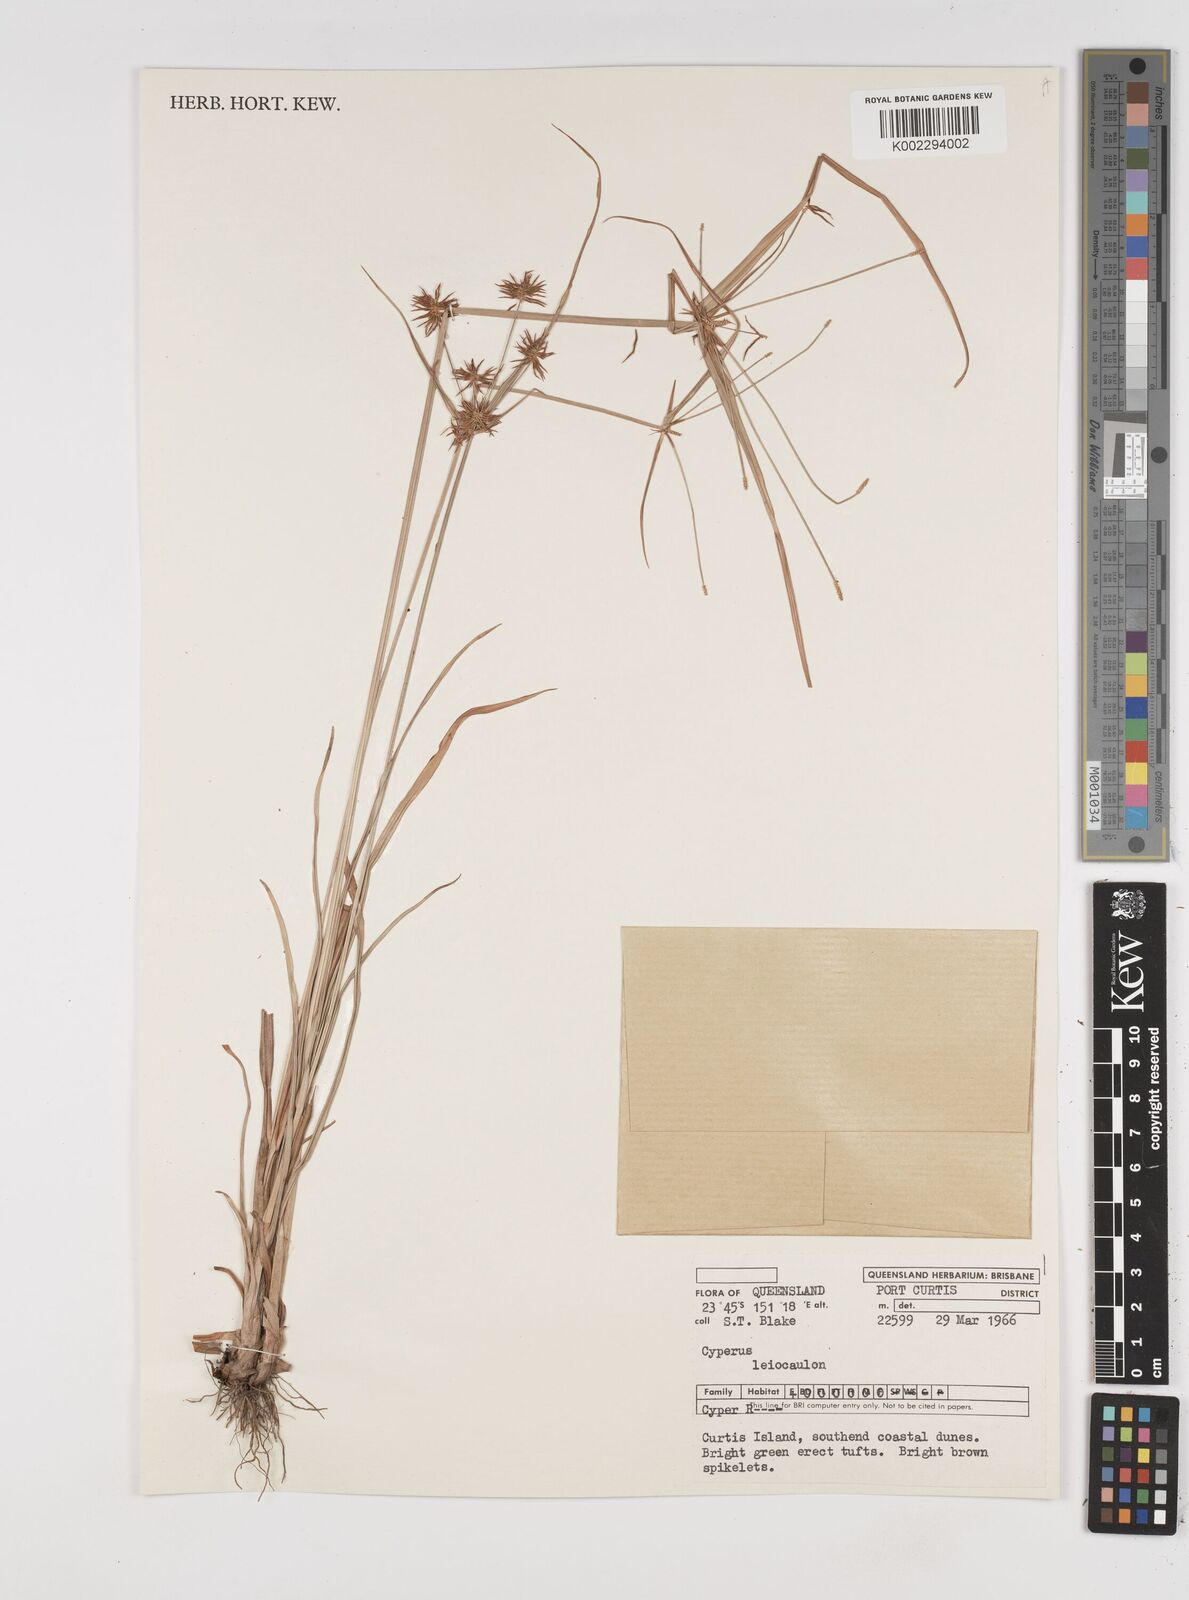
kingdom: Plantae
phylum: Tracheophyta
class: Liliopsida
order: Poales
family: Cyperaceae
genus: Cyperus
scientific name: Cyperus leiocaulon
